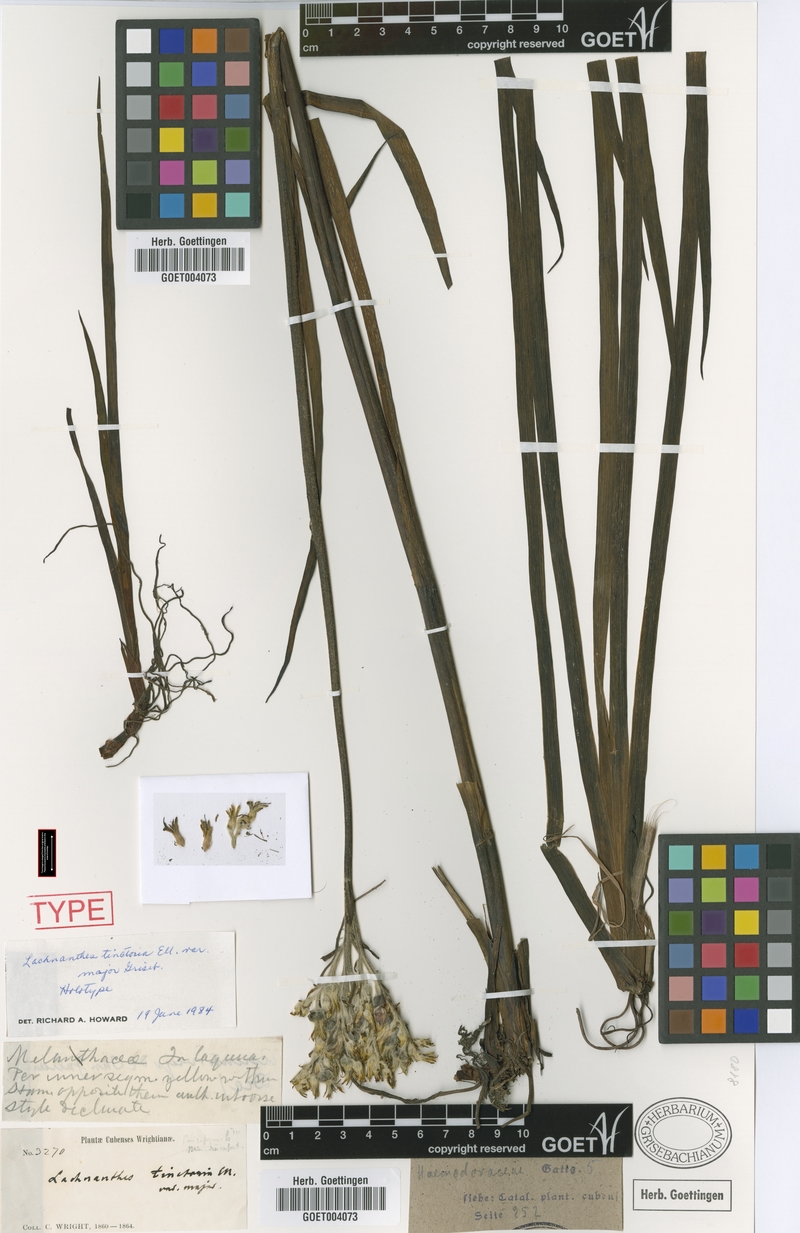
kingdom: Plantae
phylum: Tracheophyta
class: Liliopsida
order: Commelinales
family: Haemodoraceae
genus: Lachnanthes
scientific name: Lachnanthes caroliniana
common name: Carolina redroot
